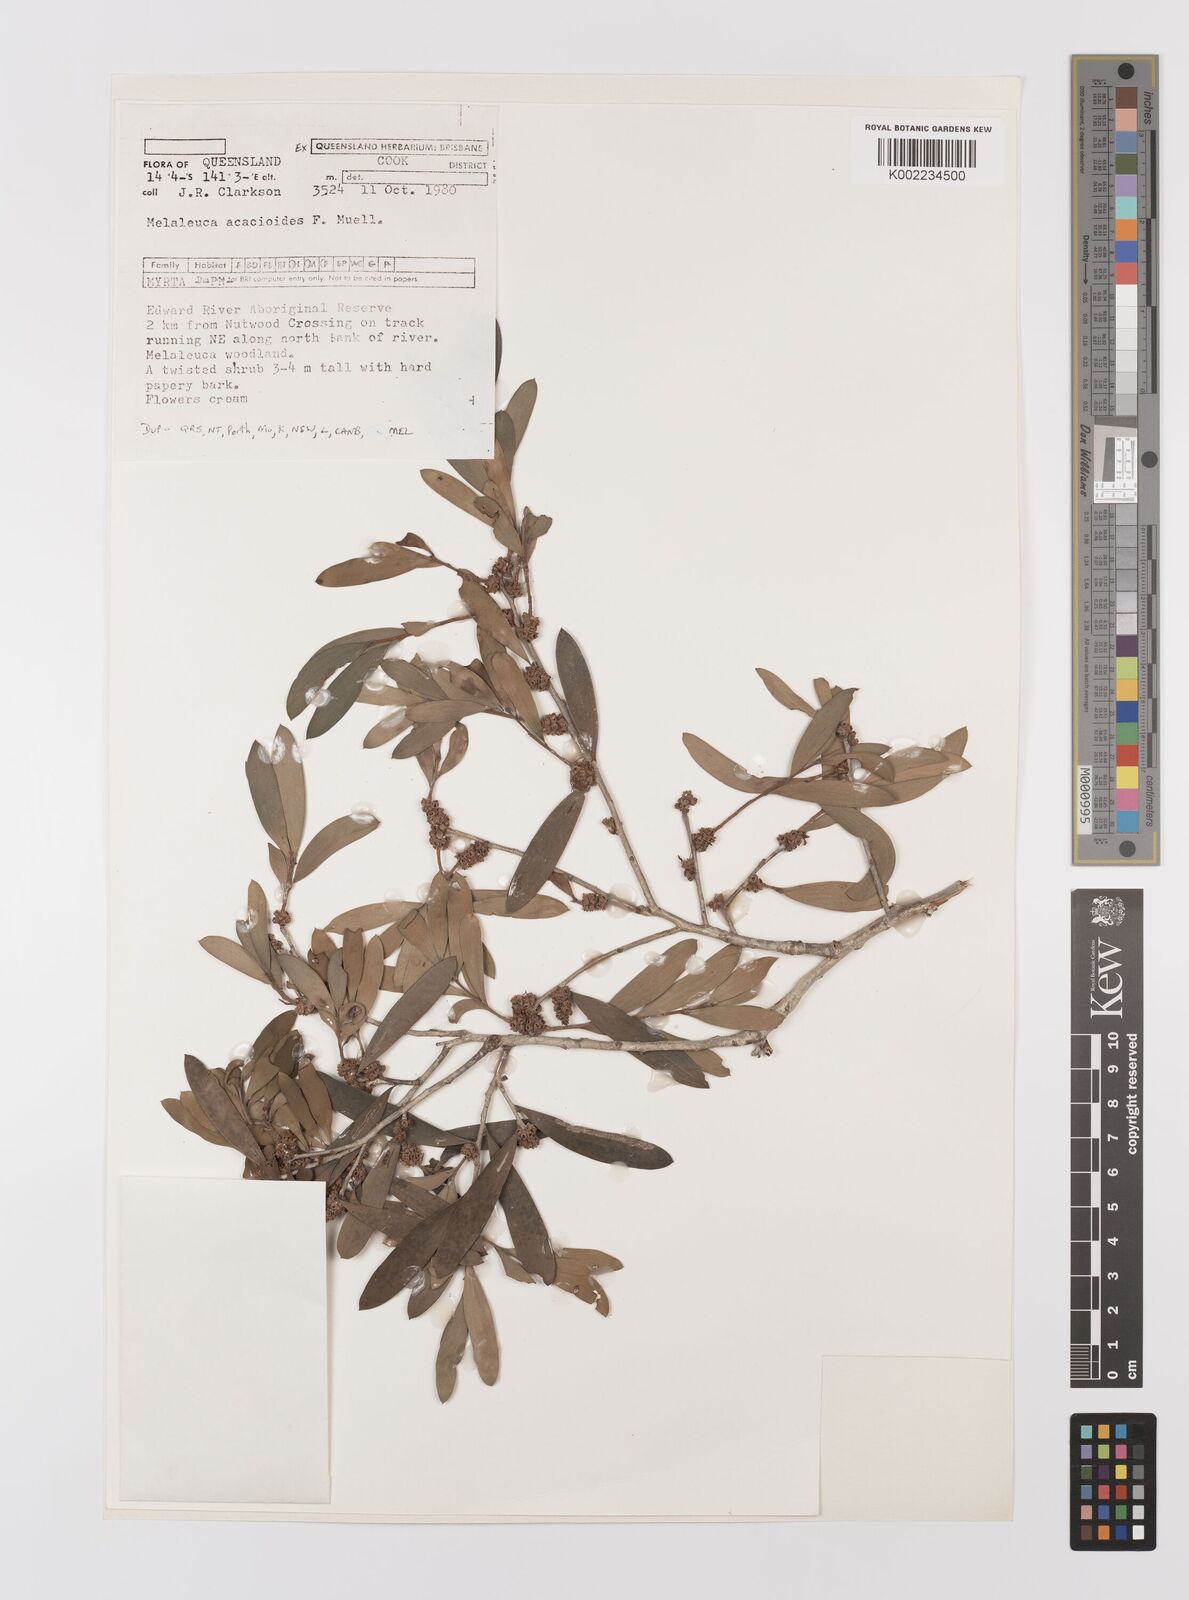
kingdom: Plantae
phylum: Tracheophyta
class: Magnoliopsida
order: Myrtales
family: Myrtaceae
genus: Melaleuca
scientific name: Melaleuca acacioides
